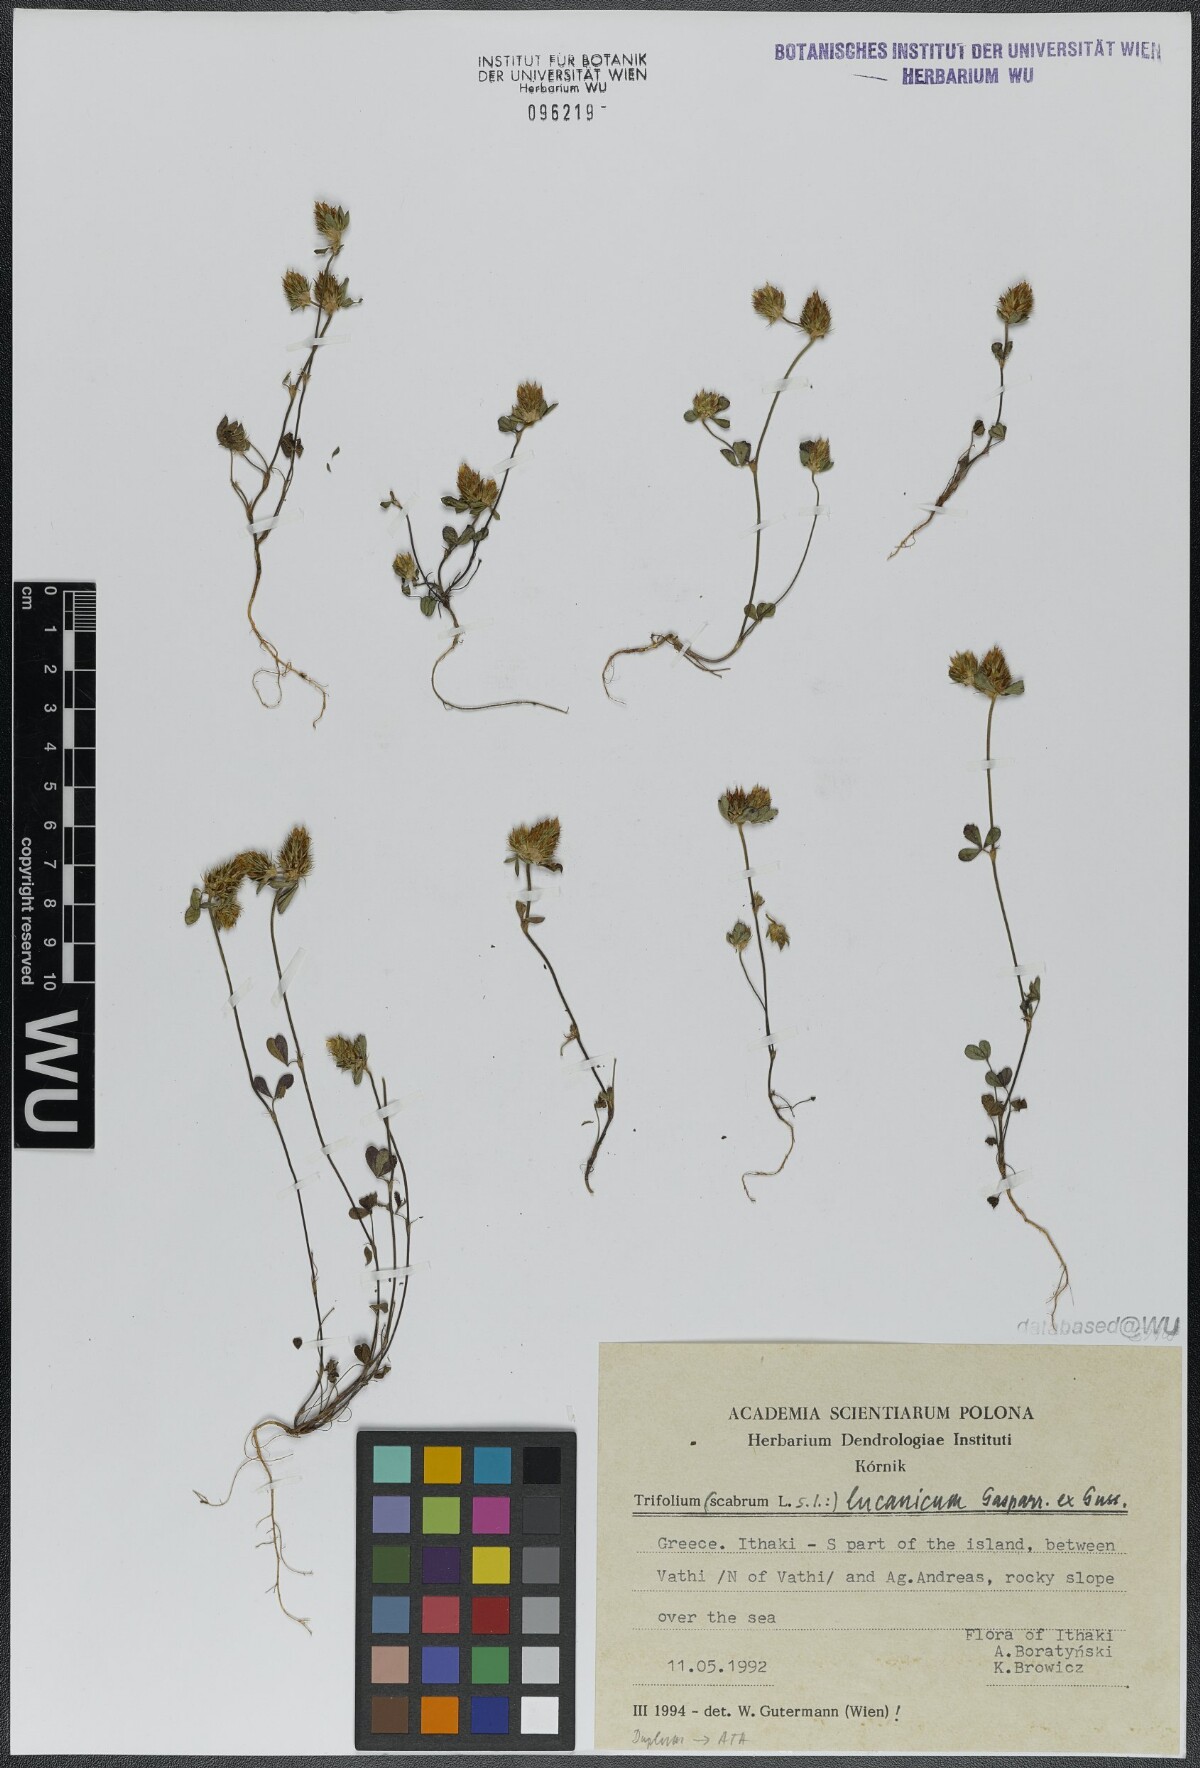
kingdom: Plantae
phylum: Tracheophyta
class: Magnoliopsida
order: Fabales
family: Fabaceae
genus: Trifolium
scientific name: Trifolium lucanicum
